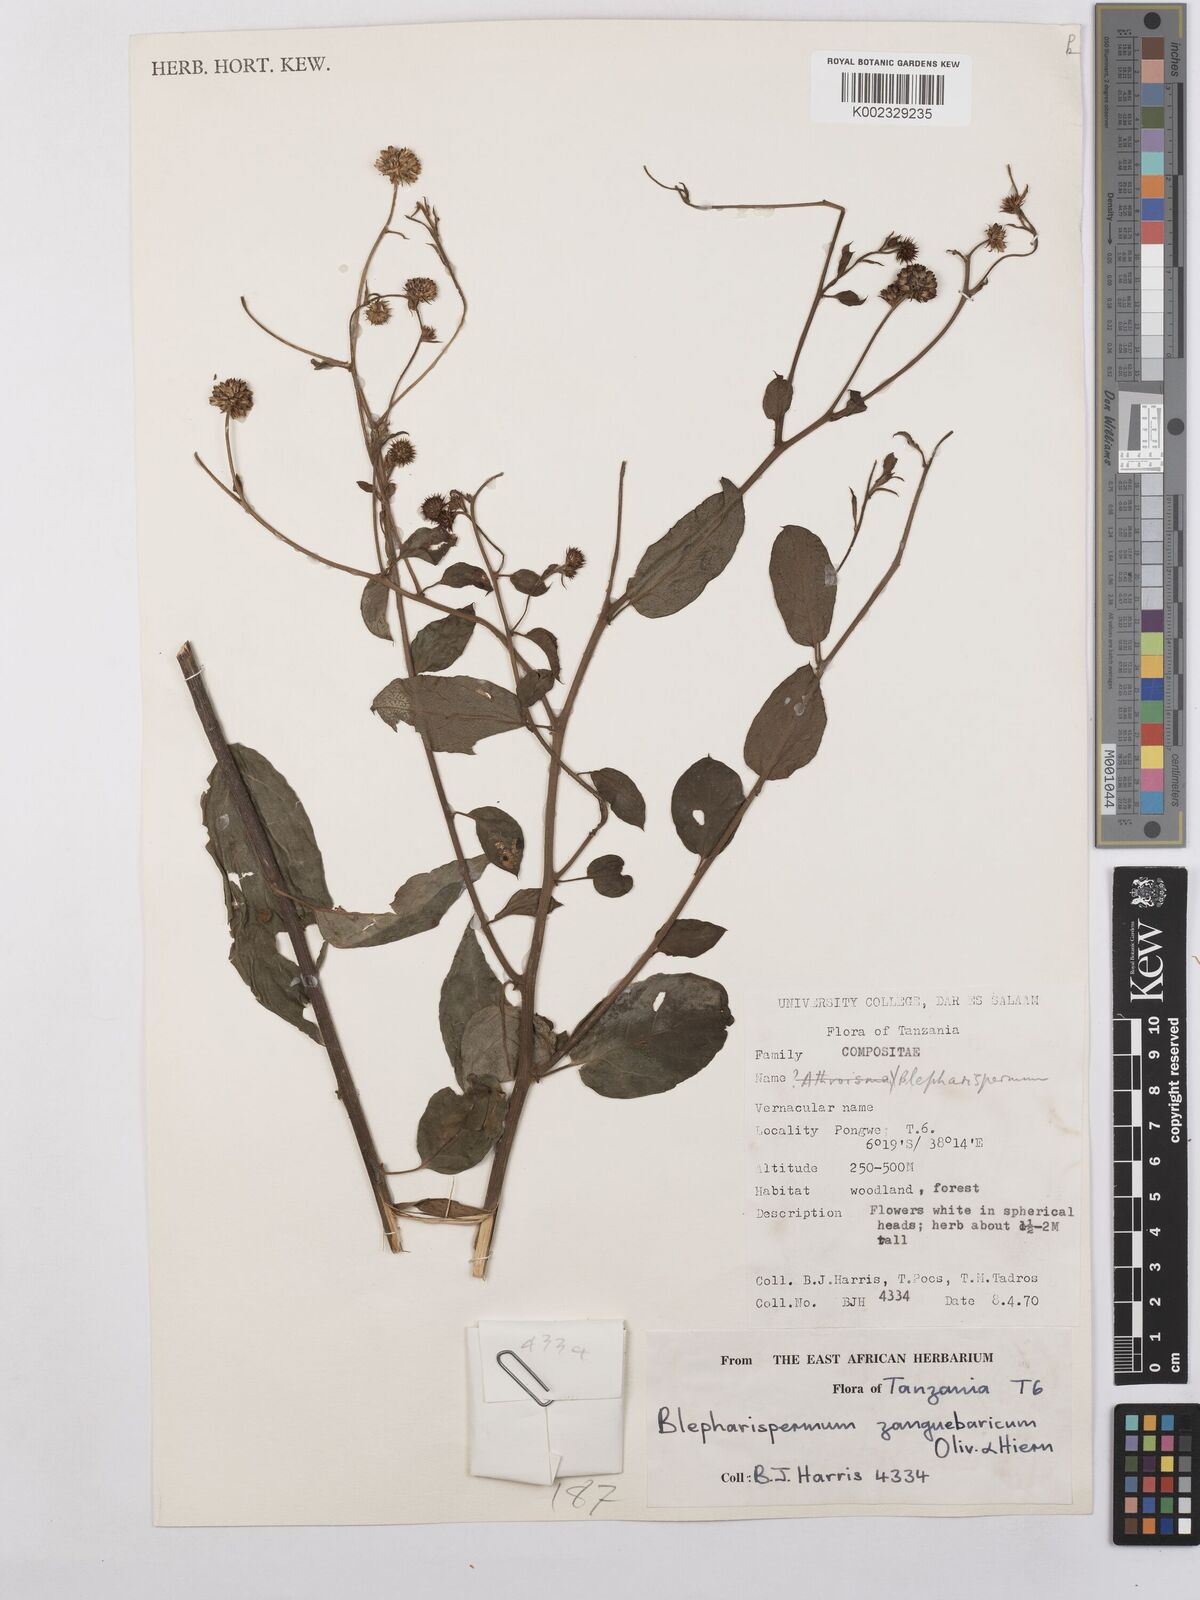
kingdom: Plantae
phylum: Tracheophyta
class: Magnoliopsida
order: Asterales
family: Asteraceae
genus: Blepharispermum
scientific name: Blepharispermum zanguebaricum
